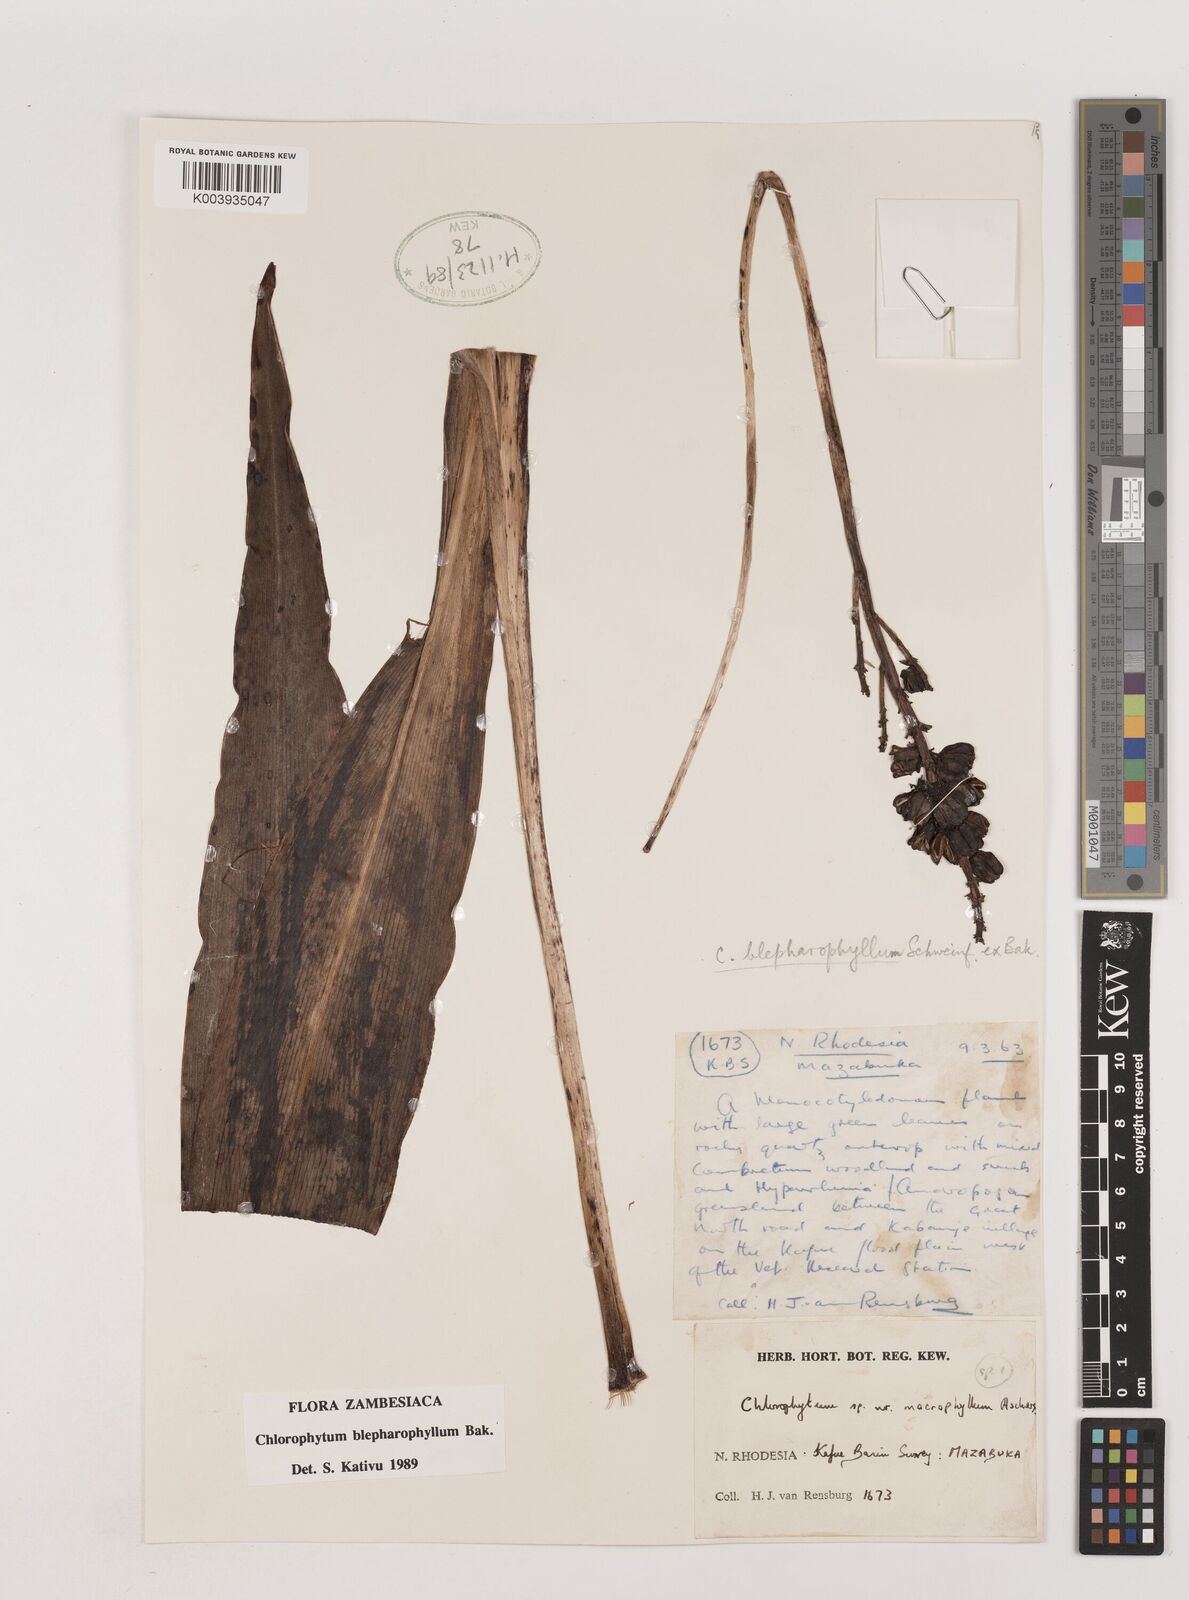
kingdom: Plantae
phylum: Tracheophyta
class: Liliopsida
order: Asparagales
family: Asparagaceae
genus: Chlorophytum
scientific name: Chlorophytum blepharophyllum
